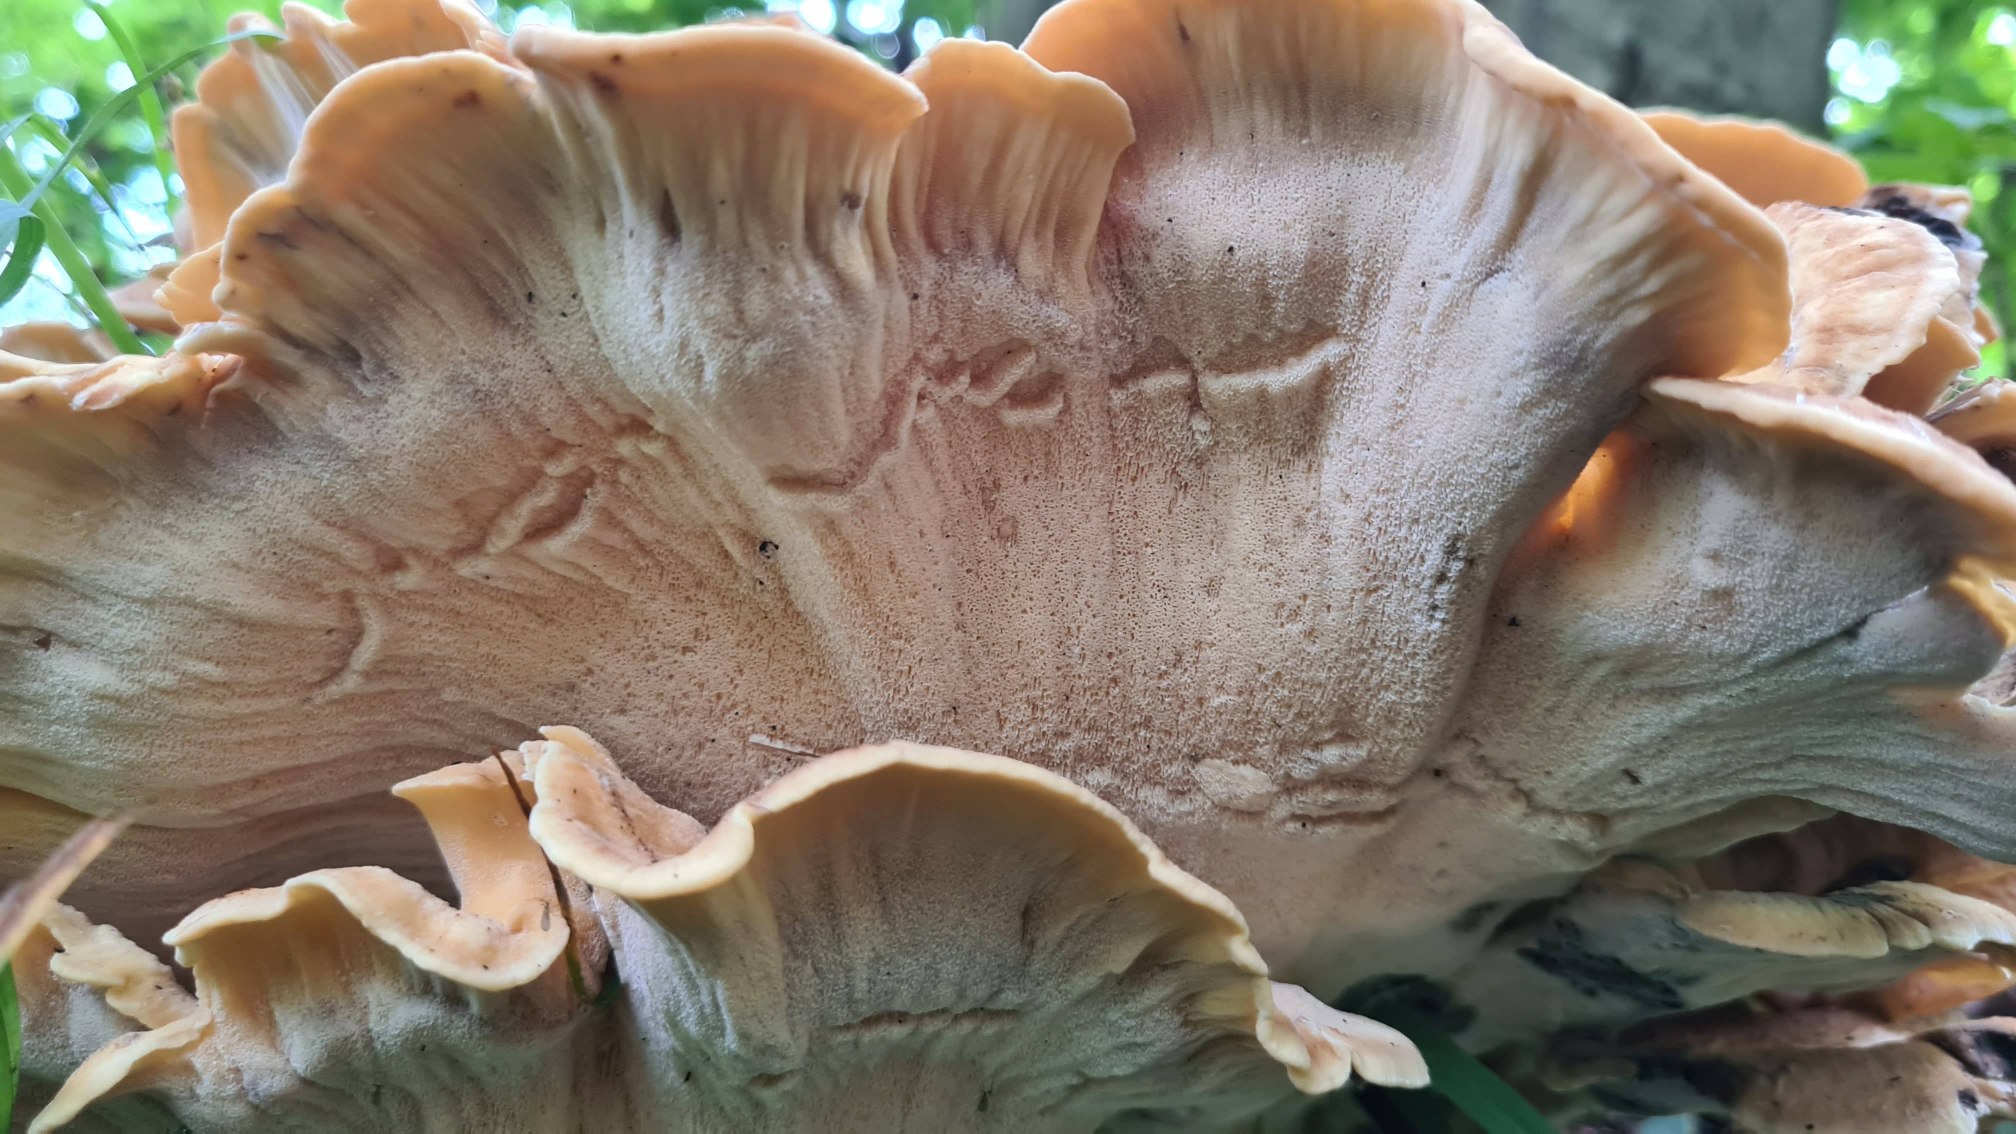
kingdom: Fungi
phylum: Basidiomycota
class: Agaricomycetes
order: Polyporales
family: Meripilaceae
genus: Meripilus
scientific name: Meripilus giganteus
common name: Kæmpeporesvamp
